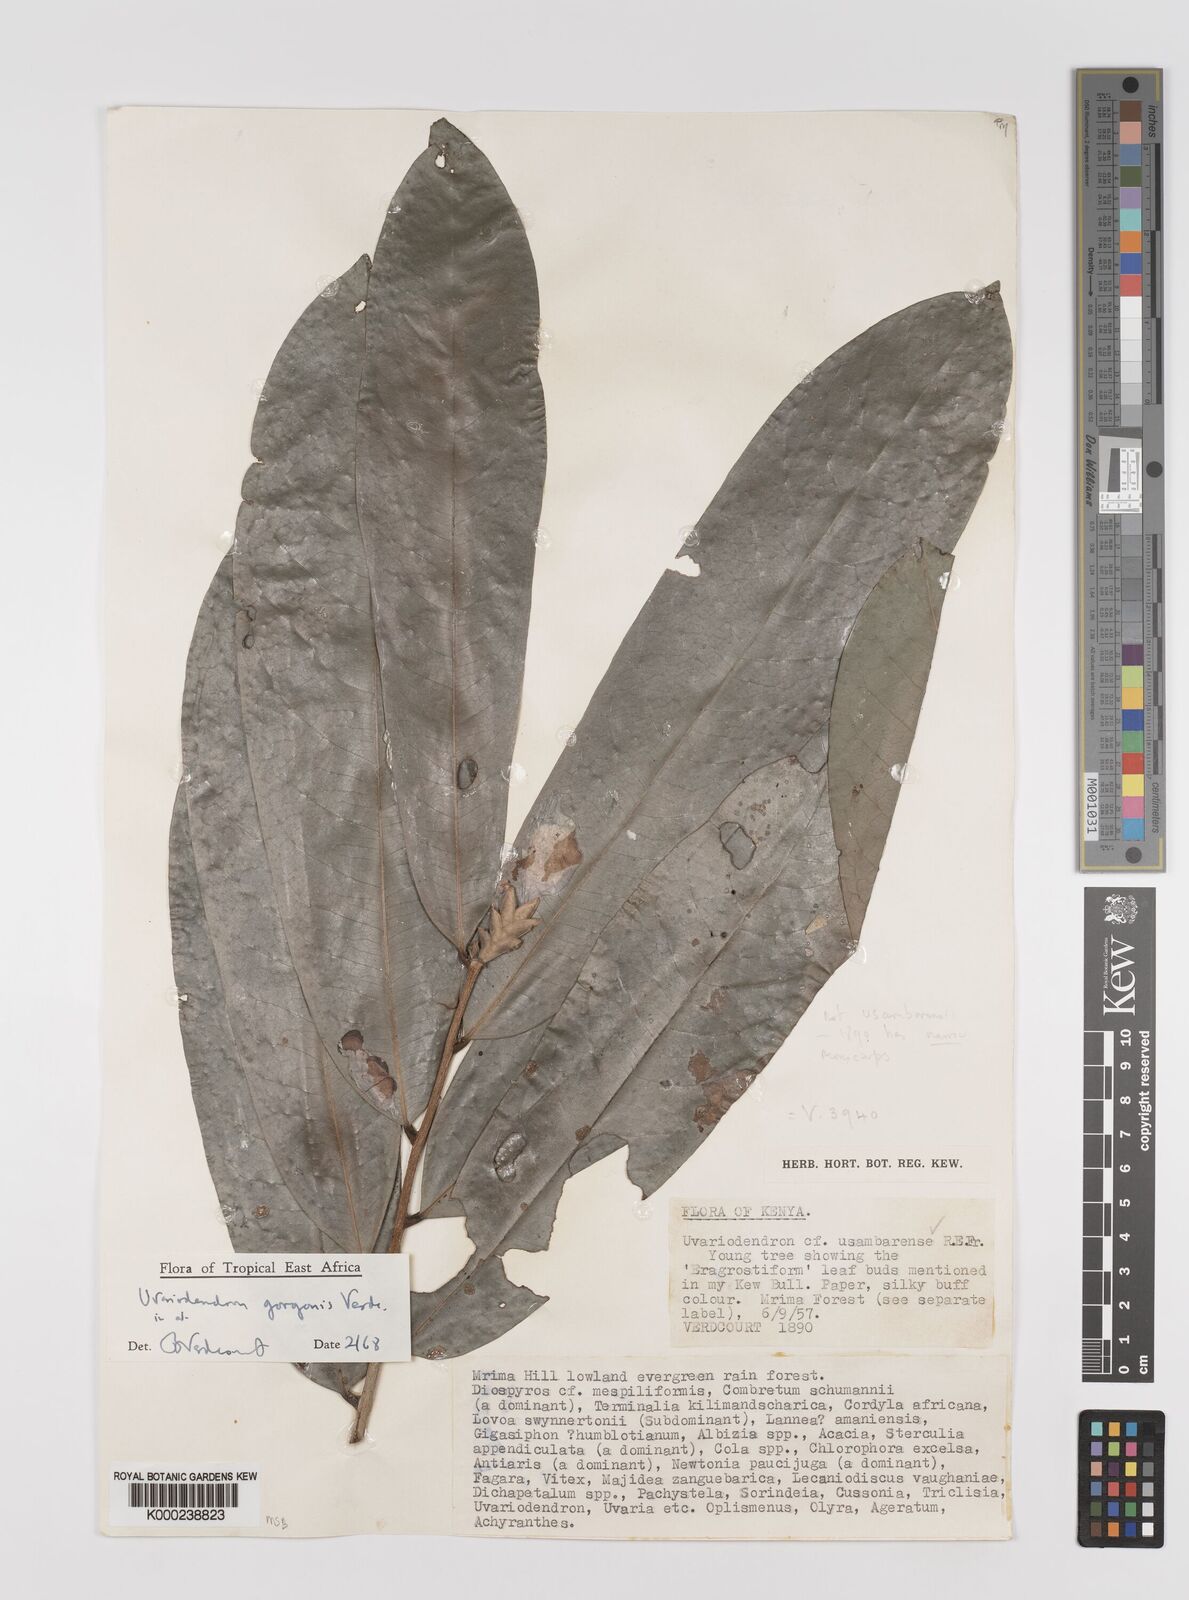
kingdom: Plantae
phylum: Tracheophyta
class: Magnoliopsida
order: Magnoliales
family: Annonaceae
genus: Uvariodendron
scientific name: Uvariodendron gorgonis
